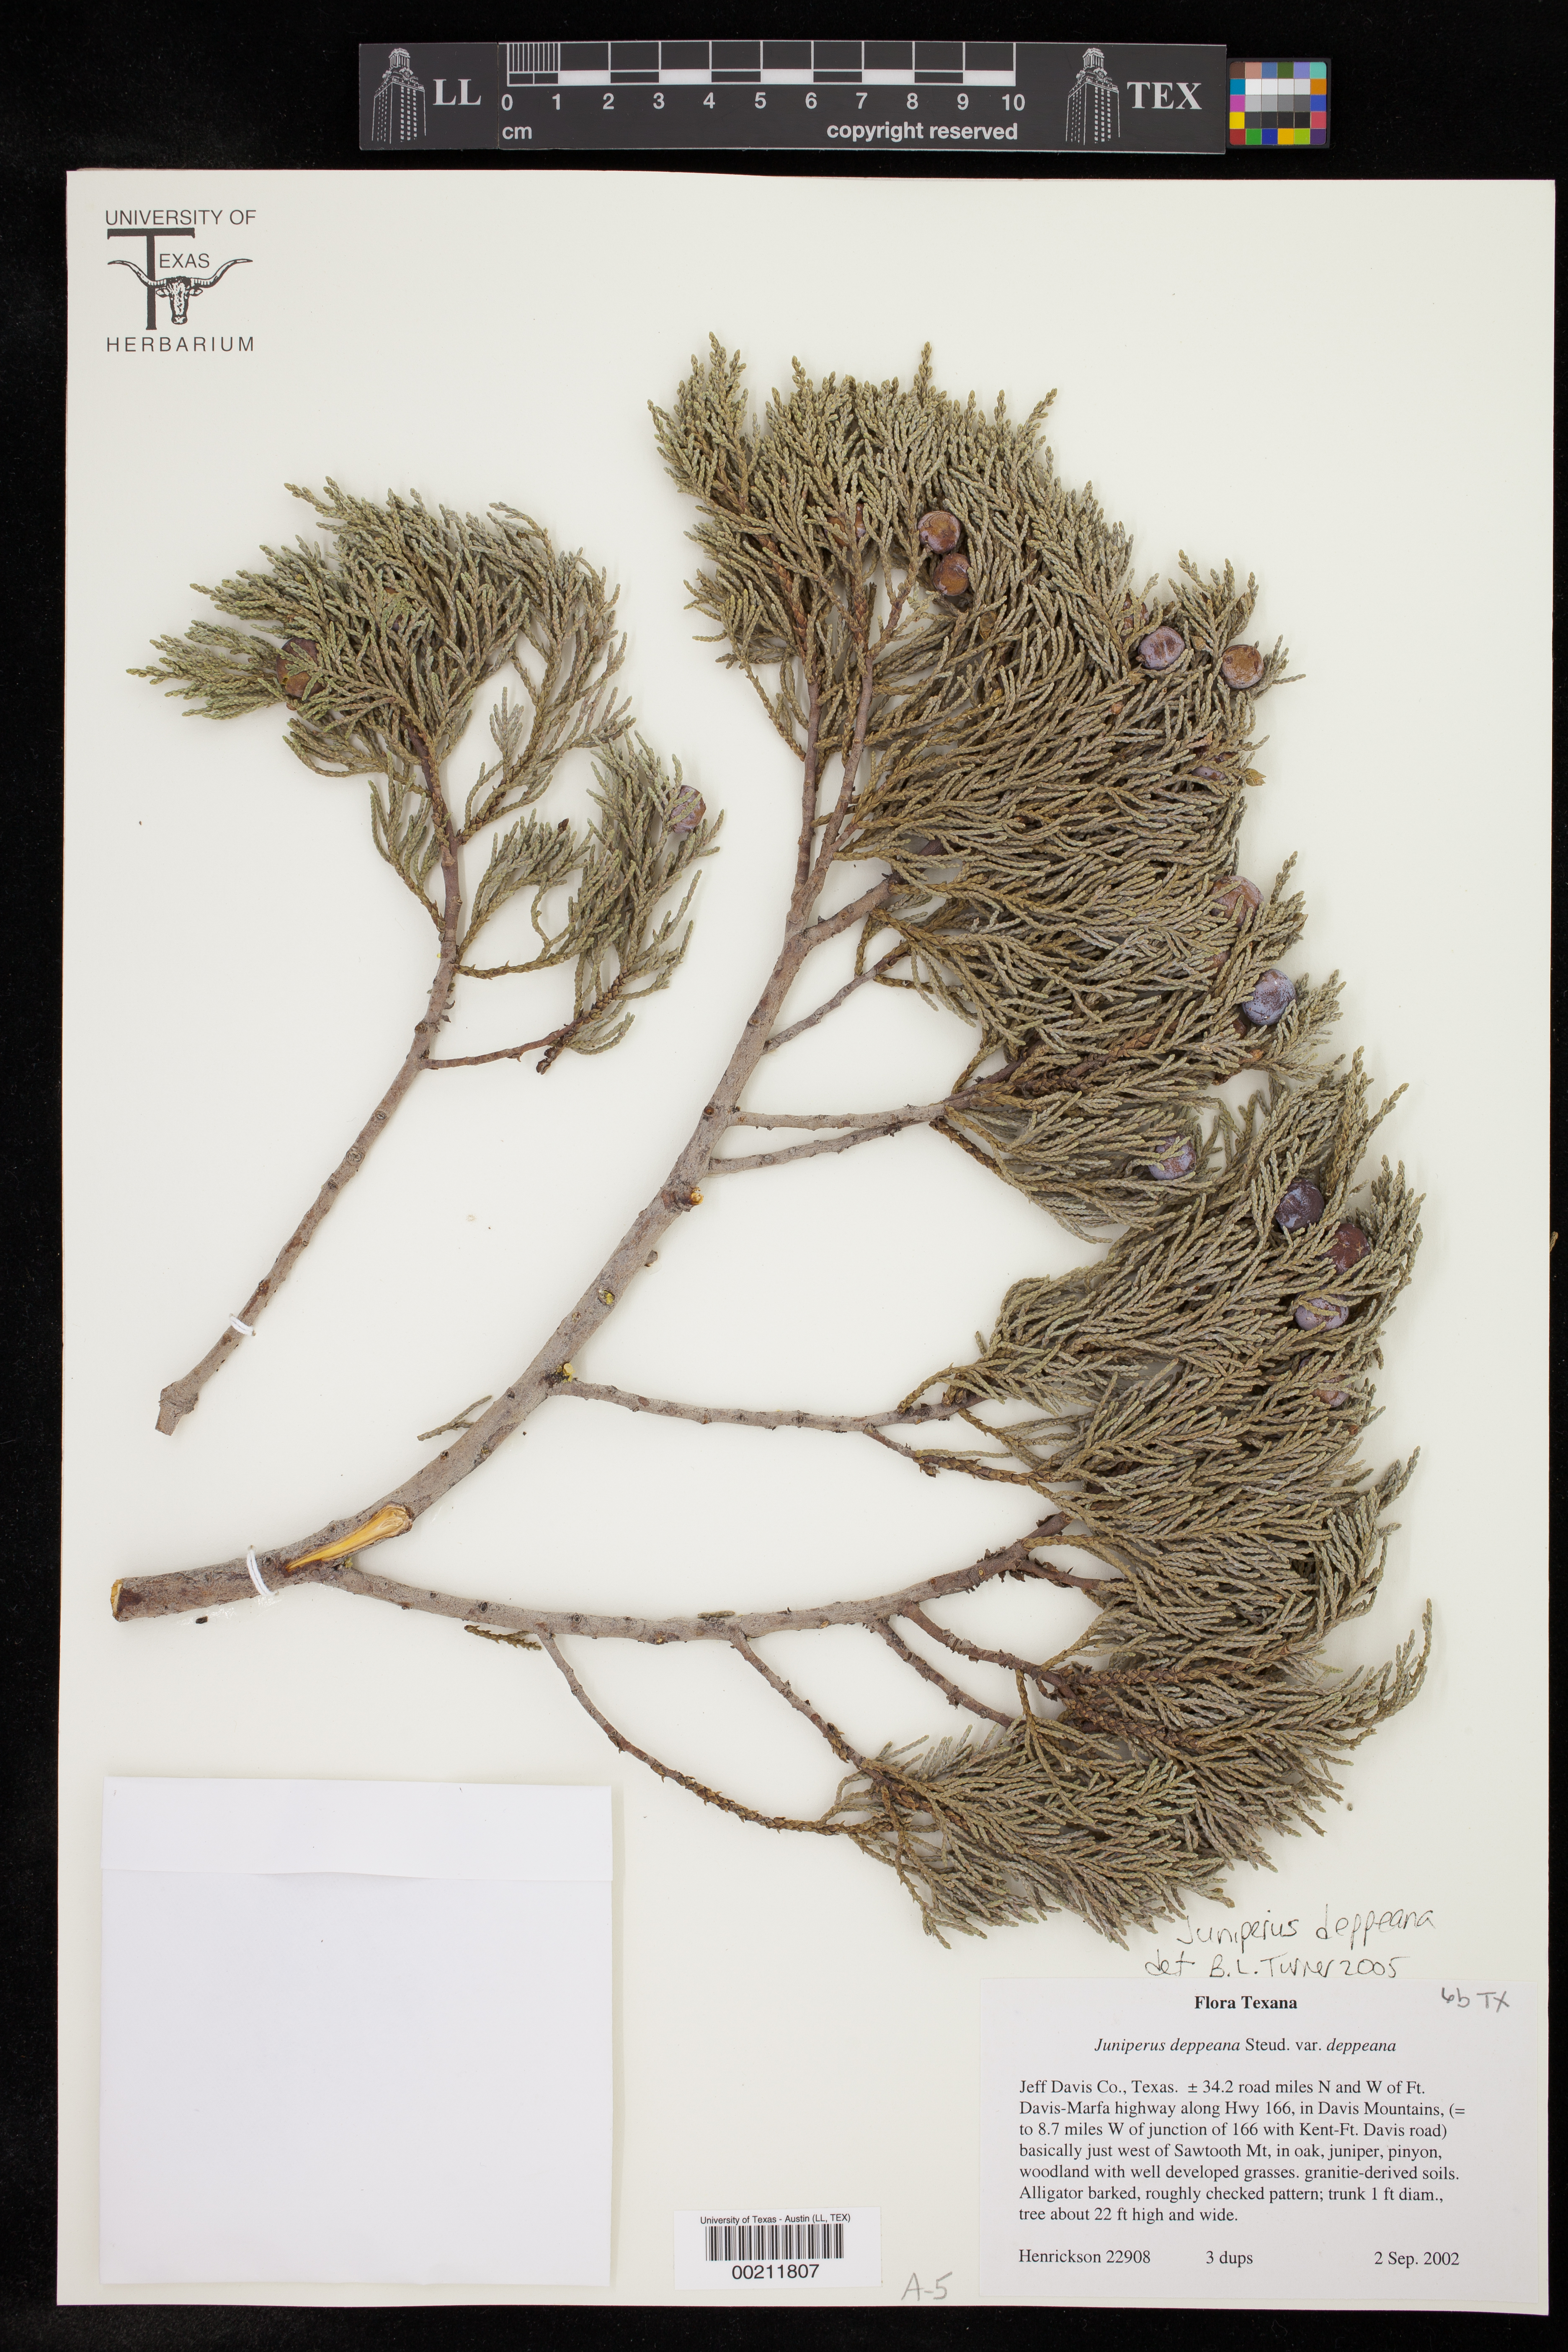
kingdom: Plantae
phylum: Tracheophyta
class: Pinopsida
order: Pinales
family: Cupressaceae
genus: Juniperus
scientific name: Juniperus deppeana
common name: Alligator juniper
